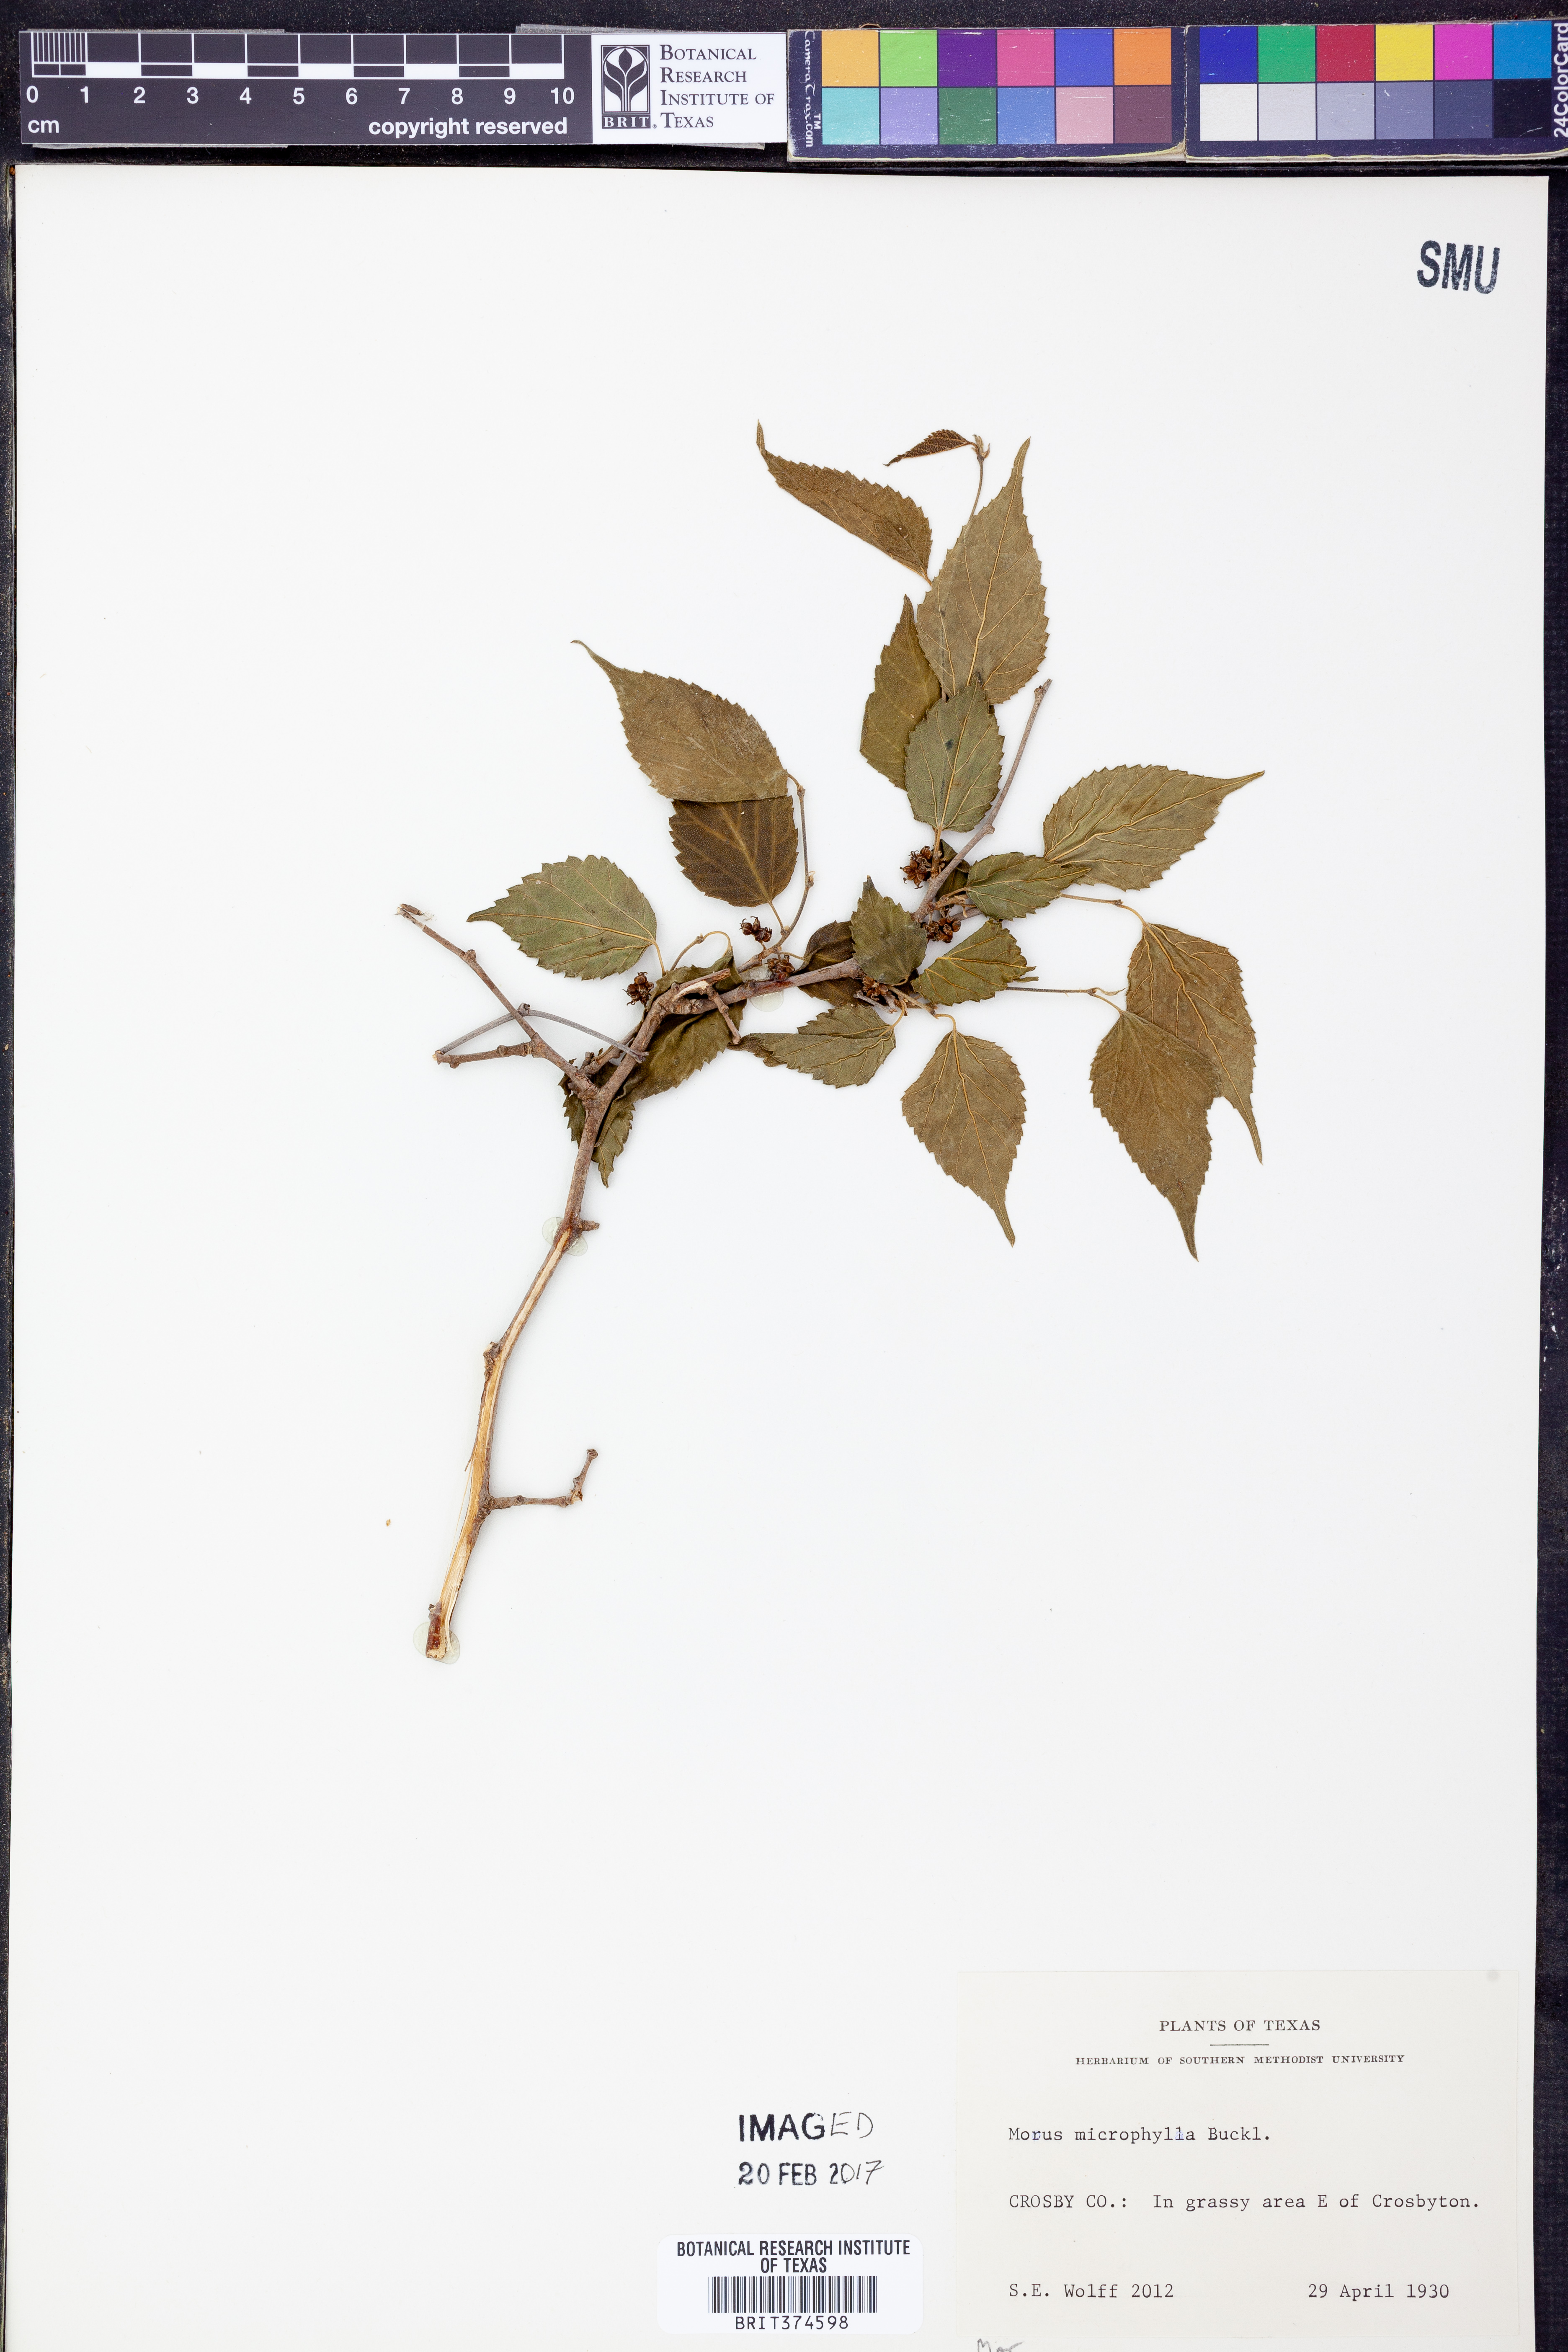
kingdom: Plantae
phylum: Tracheophyta
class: Magnoliopsida
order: Rosales
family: Moraceae
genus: Morus
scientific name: Morus microphylla
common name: Mexican mulberry
